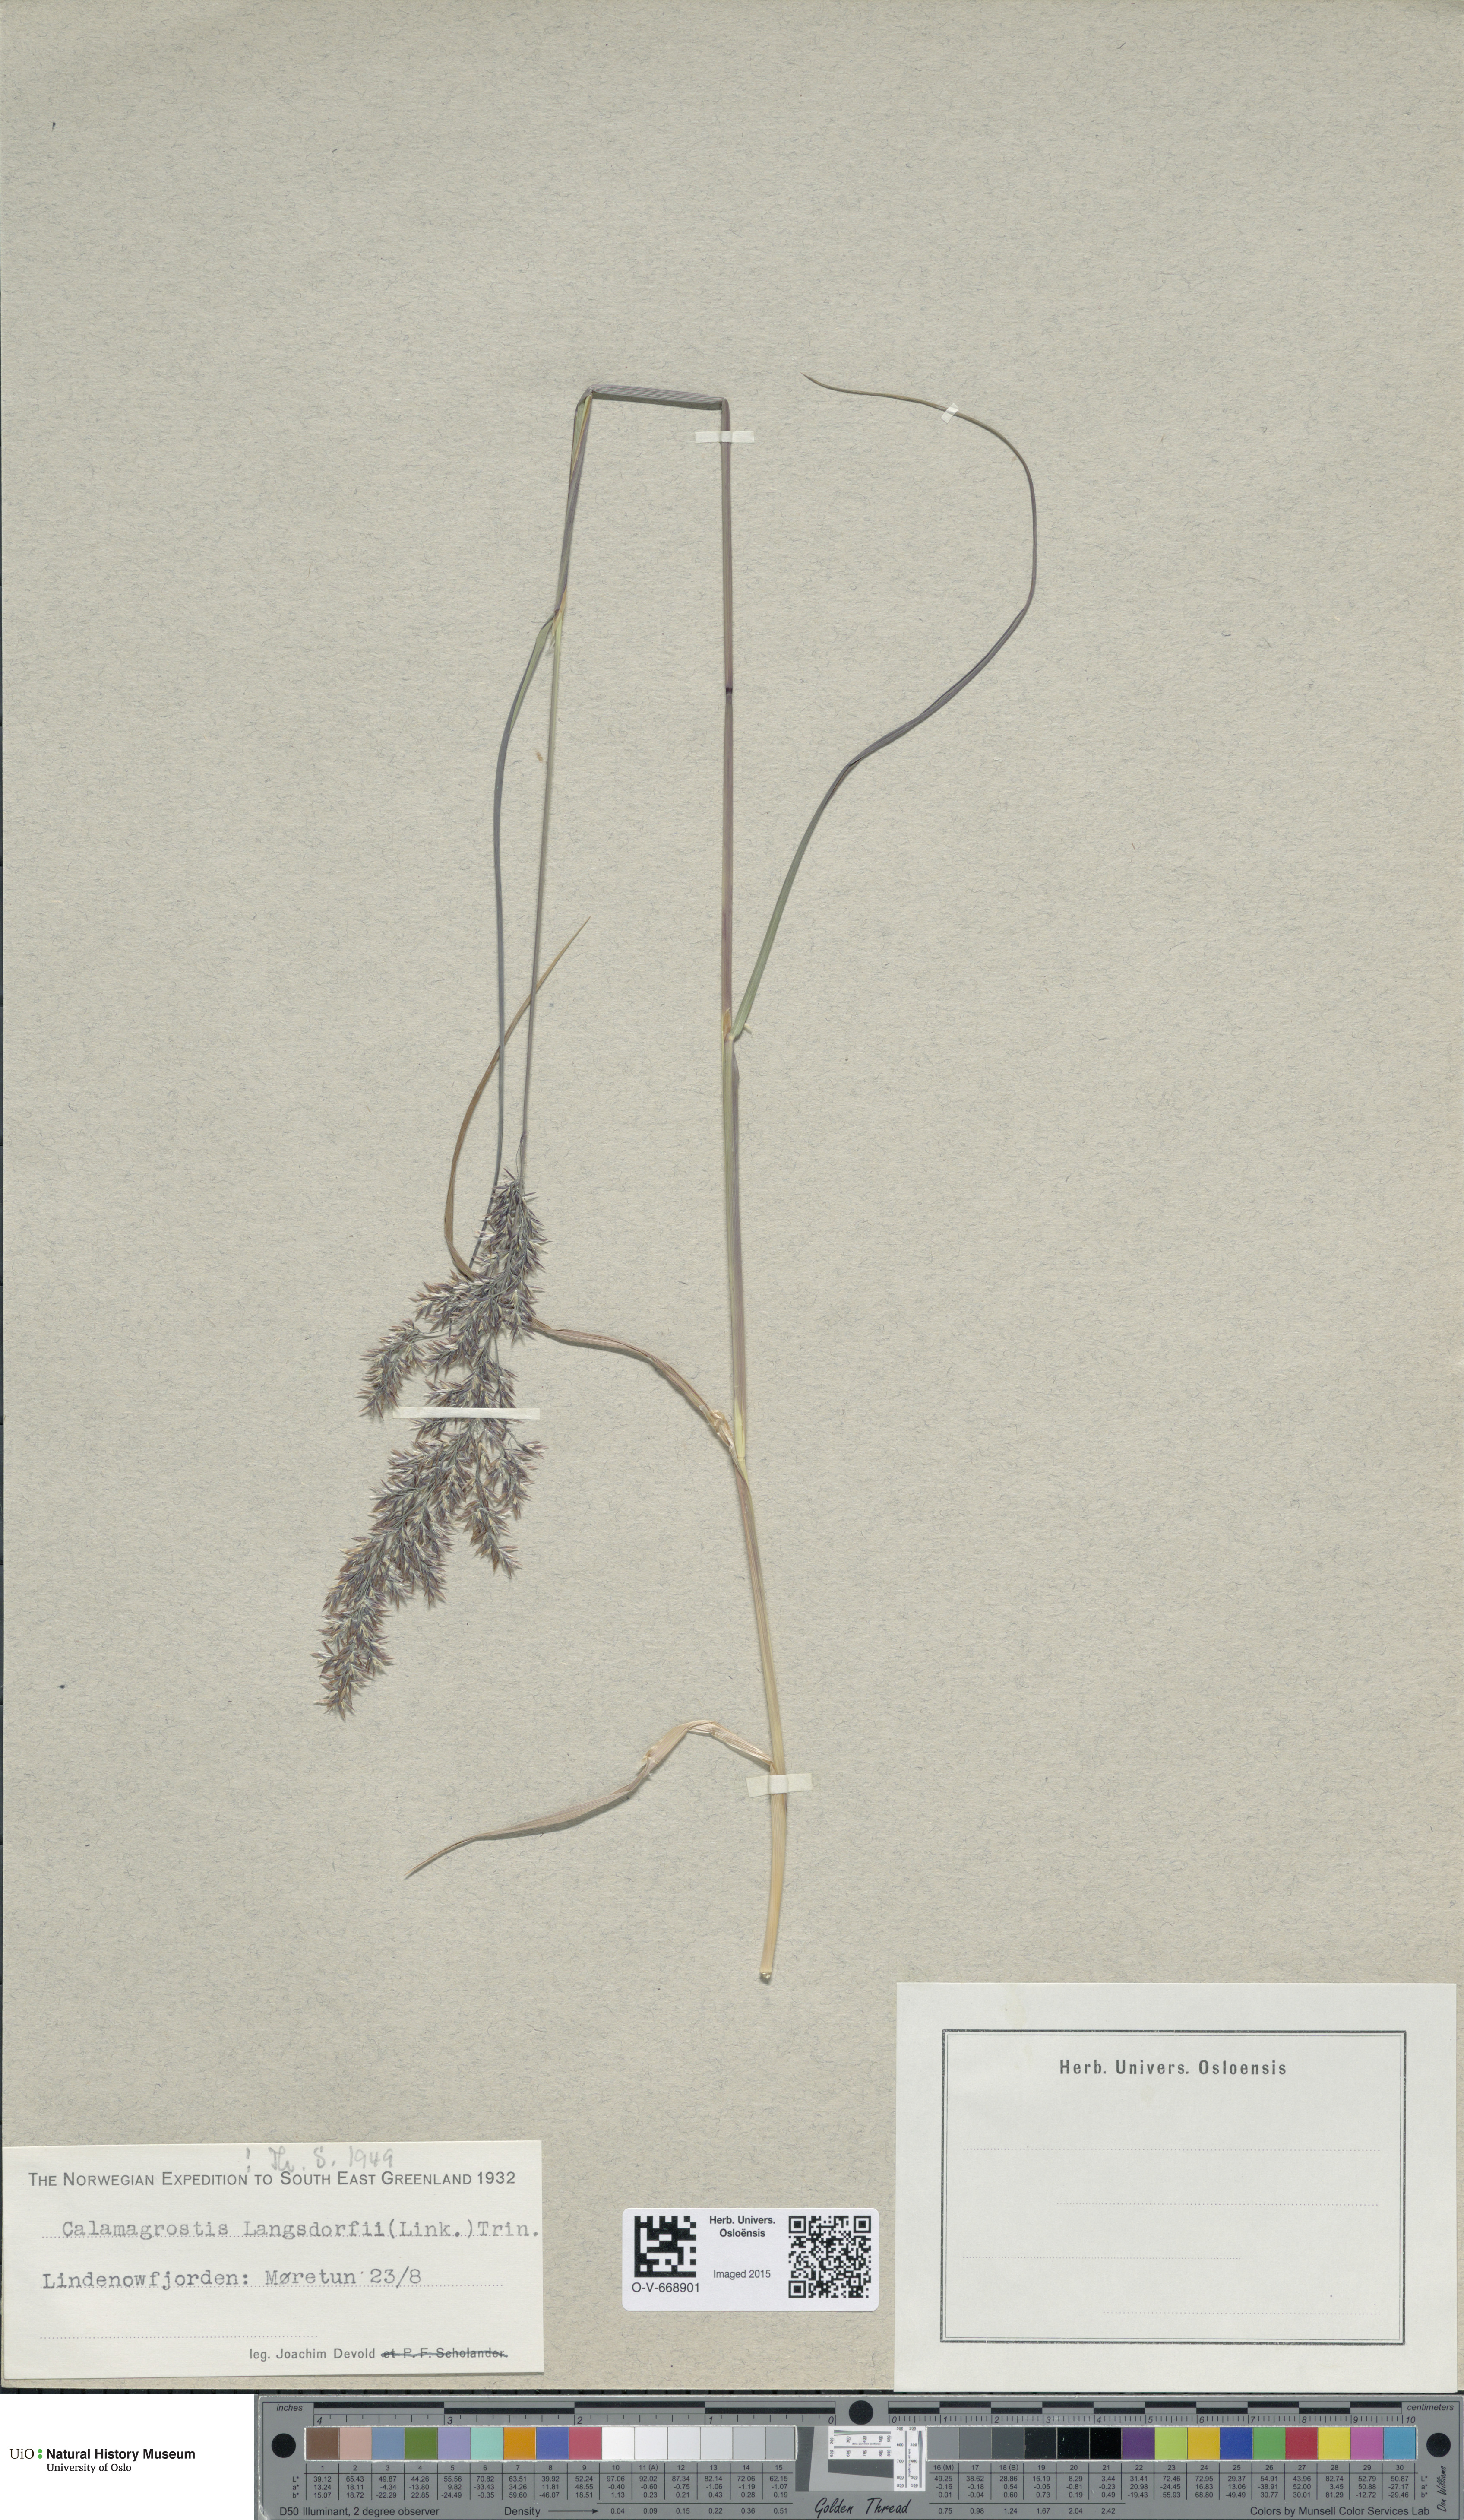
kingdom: Plantae
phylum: Tracheophyta
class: Liliopsida
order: Poales
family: Poaceae
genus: Calamagrostis
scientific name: Calamagrostis purpurea
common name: Scandinavian small-reed
